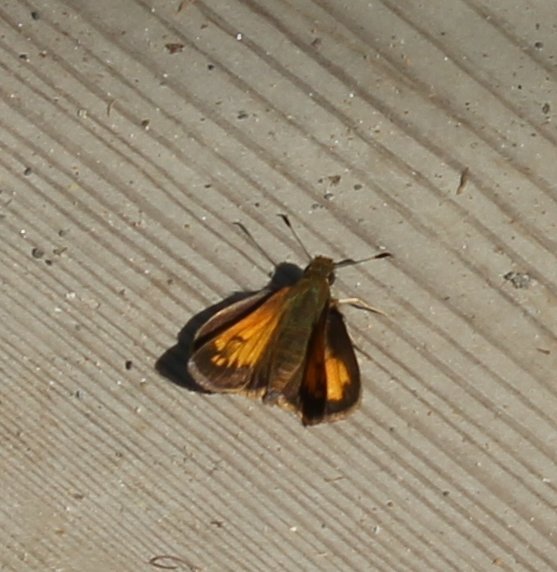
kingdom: Animalia
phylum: Arthropoda
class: Insecta
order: Lepidoptera
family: Hesperiidae
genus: Lon
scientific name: Lon hobomok
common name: Hobomok Skipper
